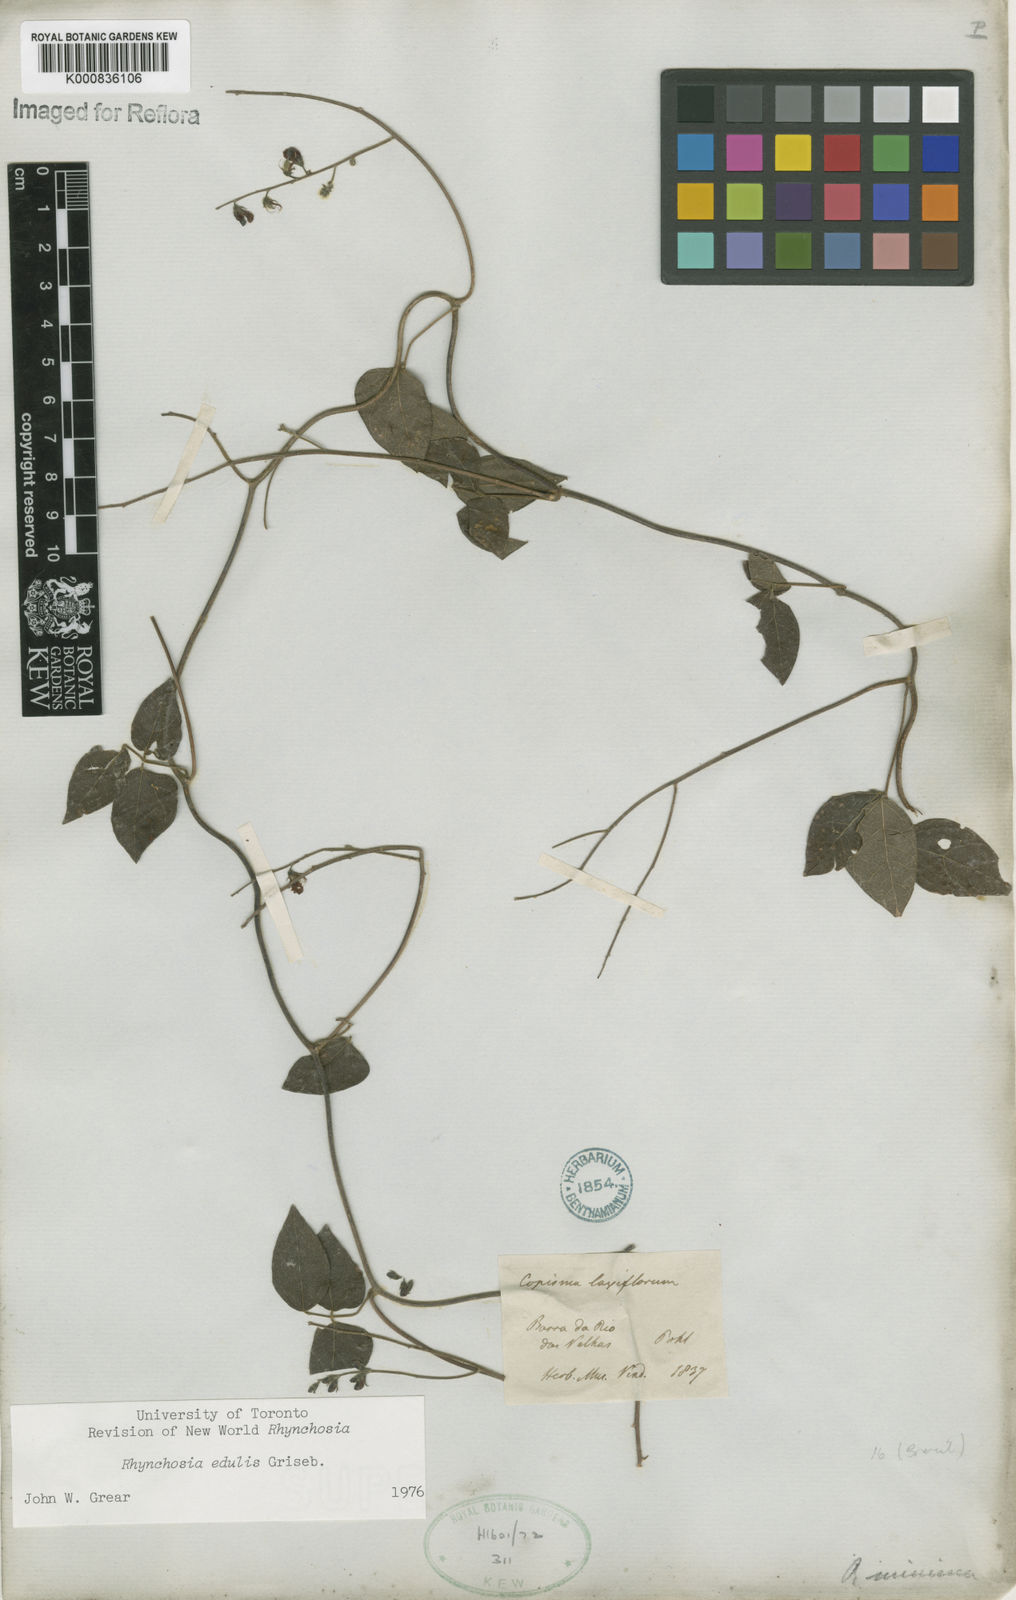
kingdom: Plantae
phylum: Tracheophyta
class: Magnoliopsida
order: Fabales
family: Fabaceae
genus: Rhynchosia
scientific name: Rhynchosia edulis
